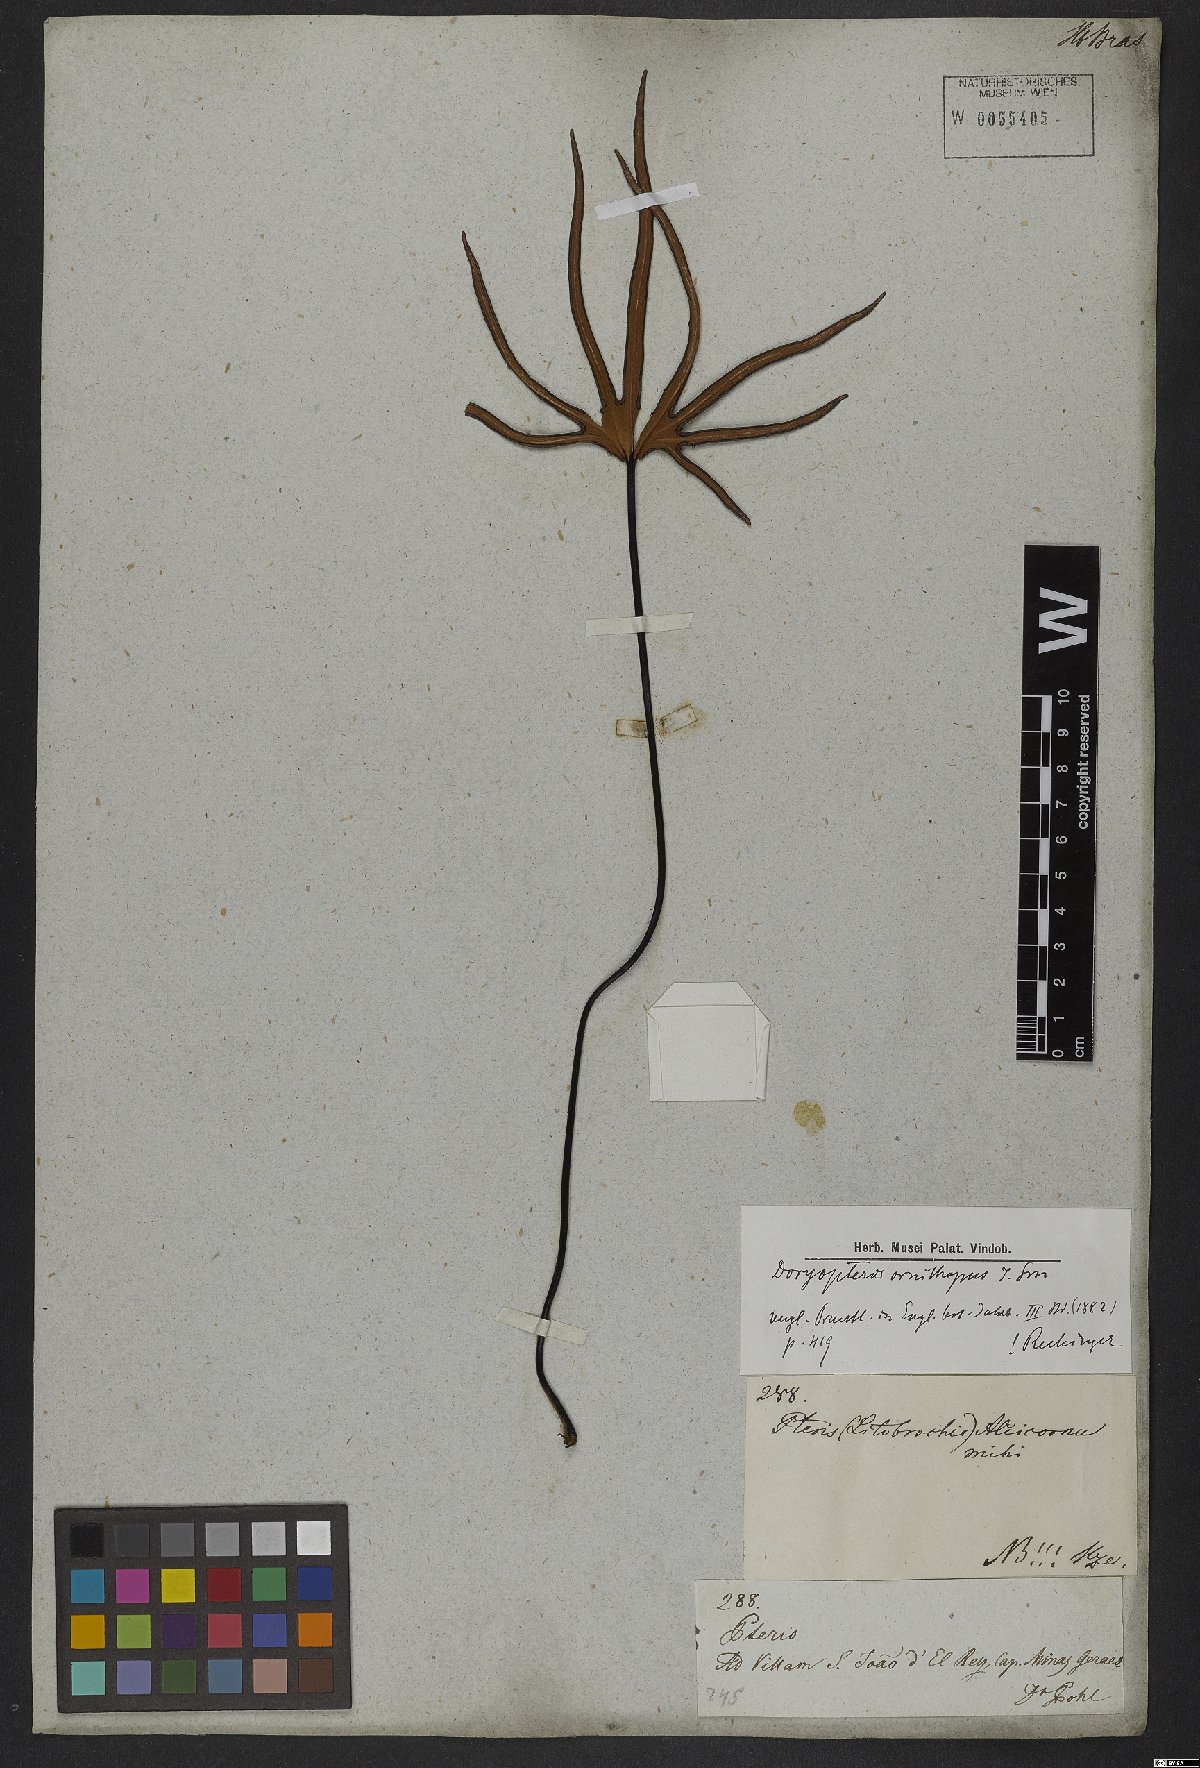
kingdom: Plantae
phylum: Tracheophyta
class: Polypodiopsida
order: Polypodiales
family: Pteridaceae
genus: Lytoneuron
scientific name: Lytoneuron ornithopus
